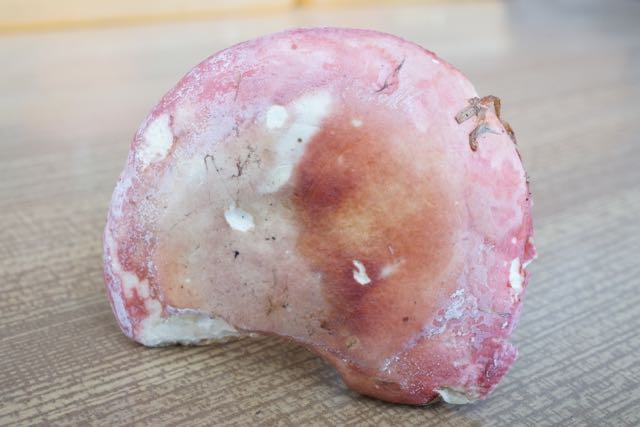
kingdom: Fungi
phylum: Basidiomycota
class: Agaricomycetes
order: Russulales
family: Russulaceae
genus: Russula
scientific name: Russula aurora
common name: rosa skørhat
